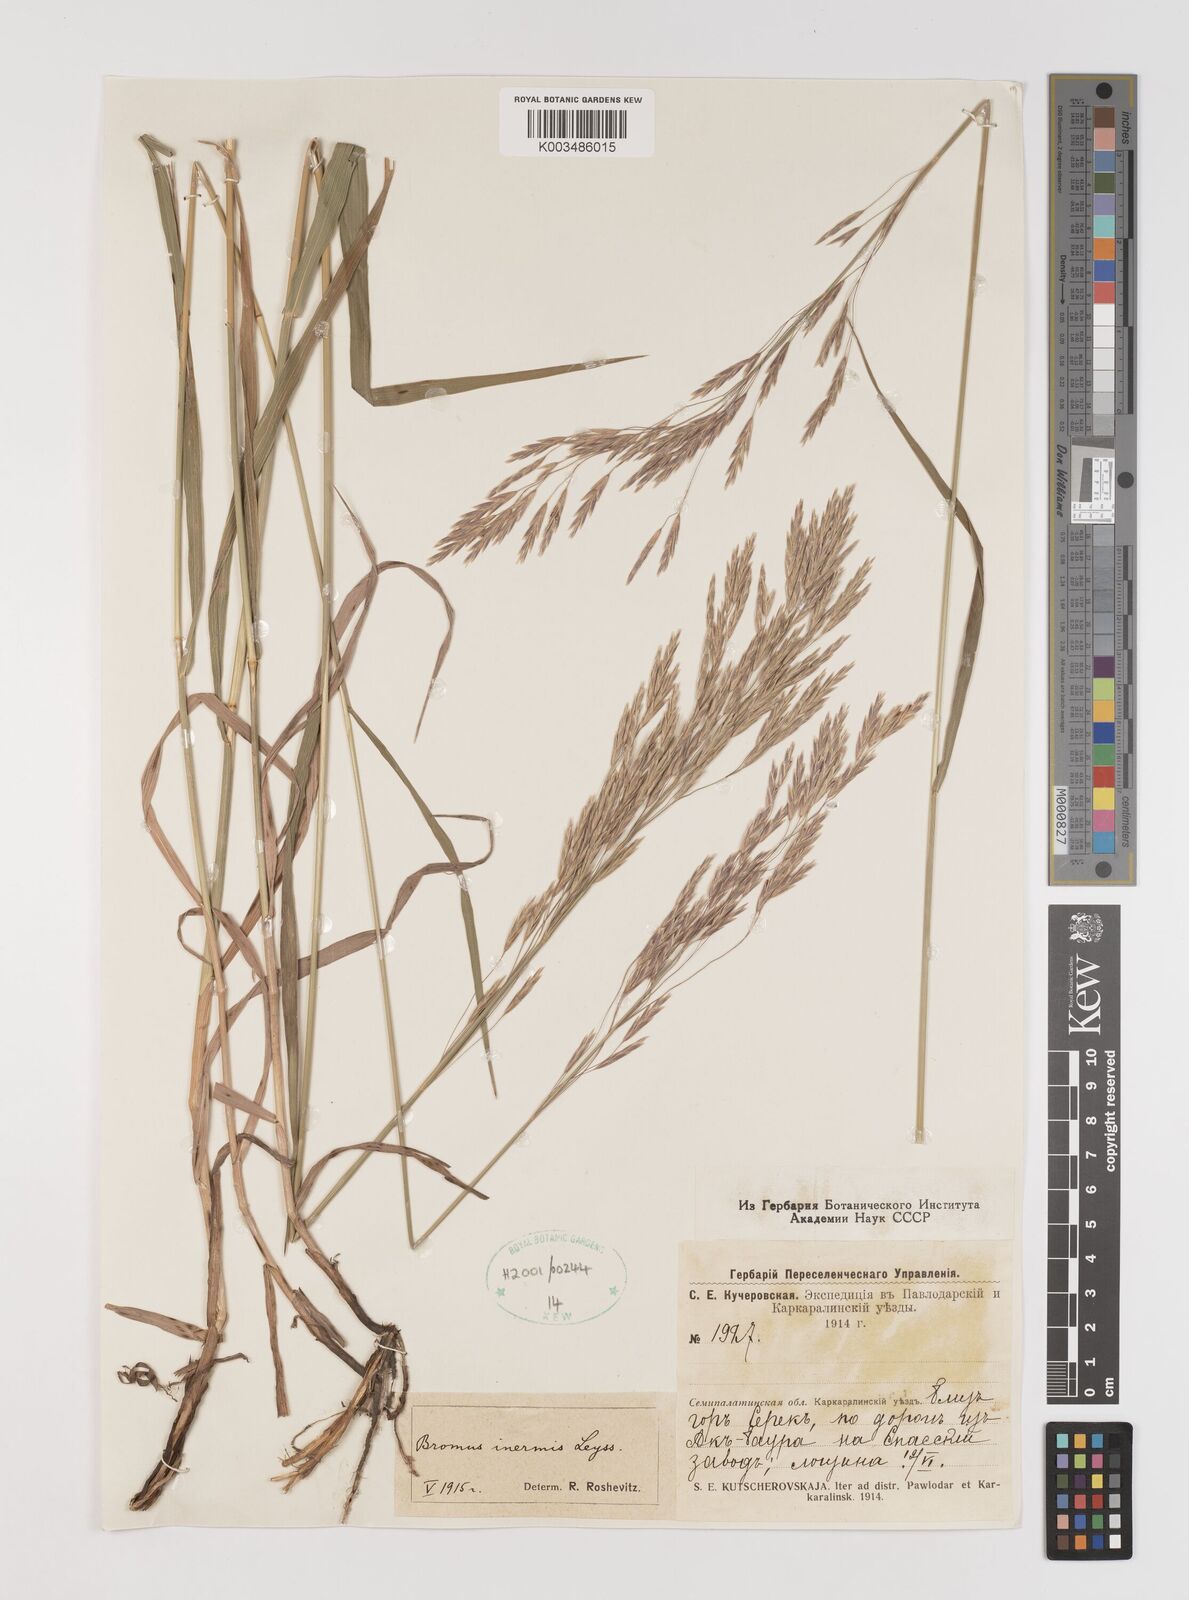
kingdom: Plantae
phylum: Tracheophyta
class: Liliopsida
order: Poales
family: Poaceae
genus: Bromus
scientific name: Bromus inermis
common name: Smooth brome
